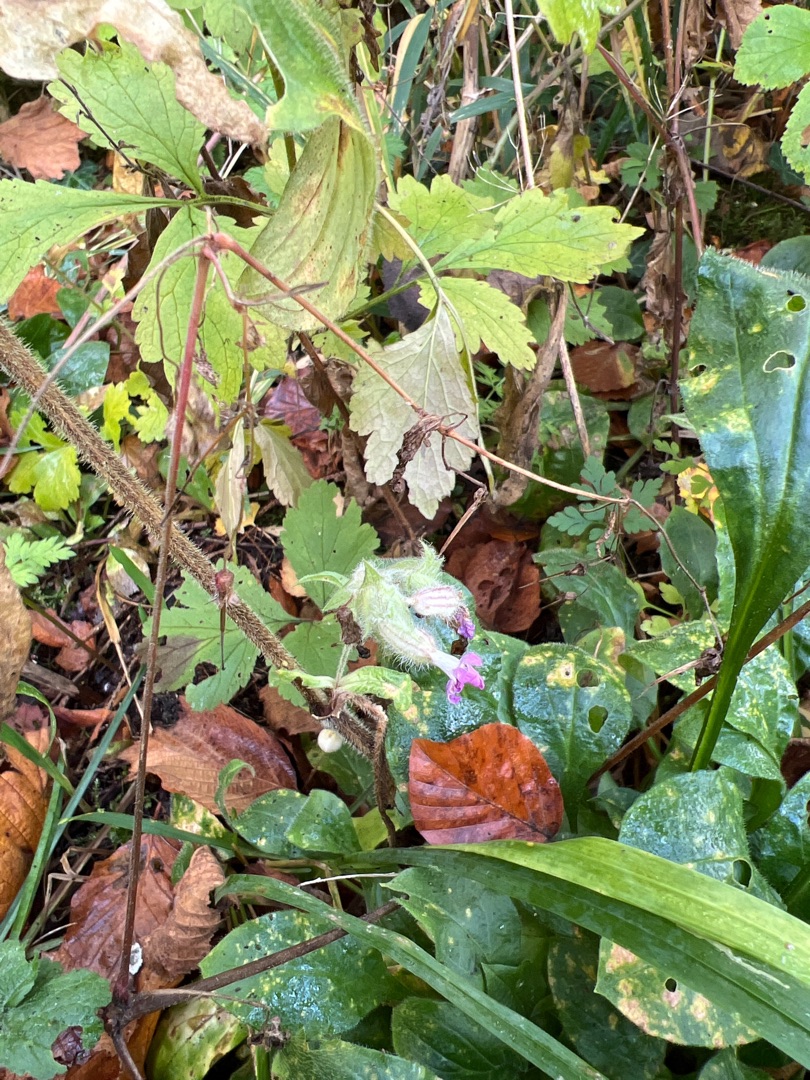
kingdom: Plantae
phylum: Tracheophyta
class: Magnoliopsida
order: Caryophyllales
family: Caryophyllaceae
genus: Silene
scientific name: Silene dioica
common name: Dagpragtstjerne
